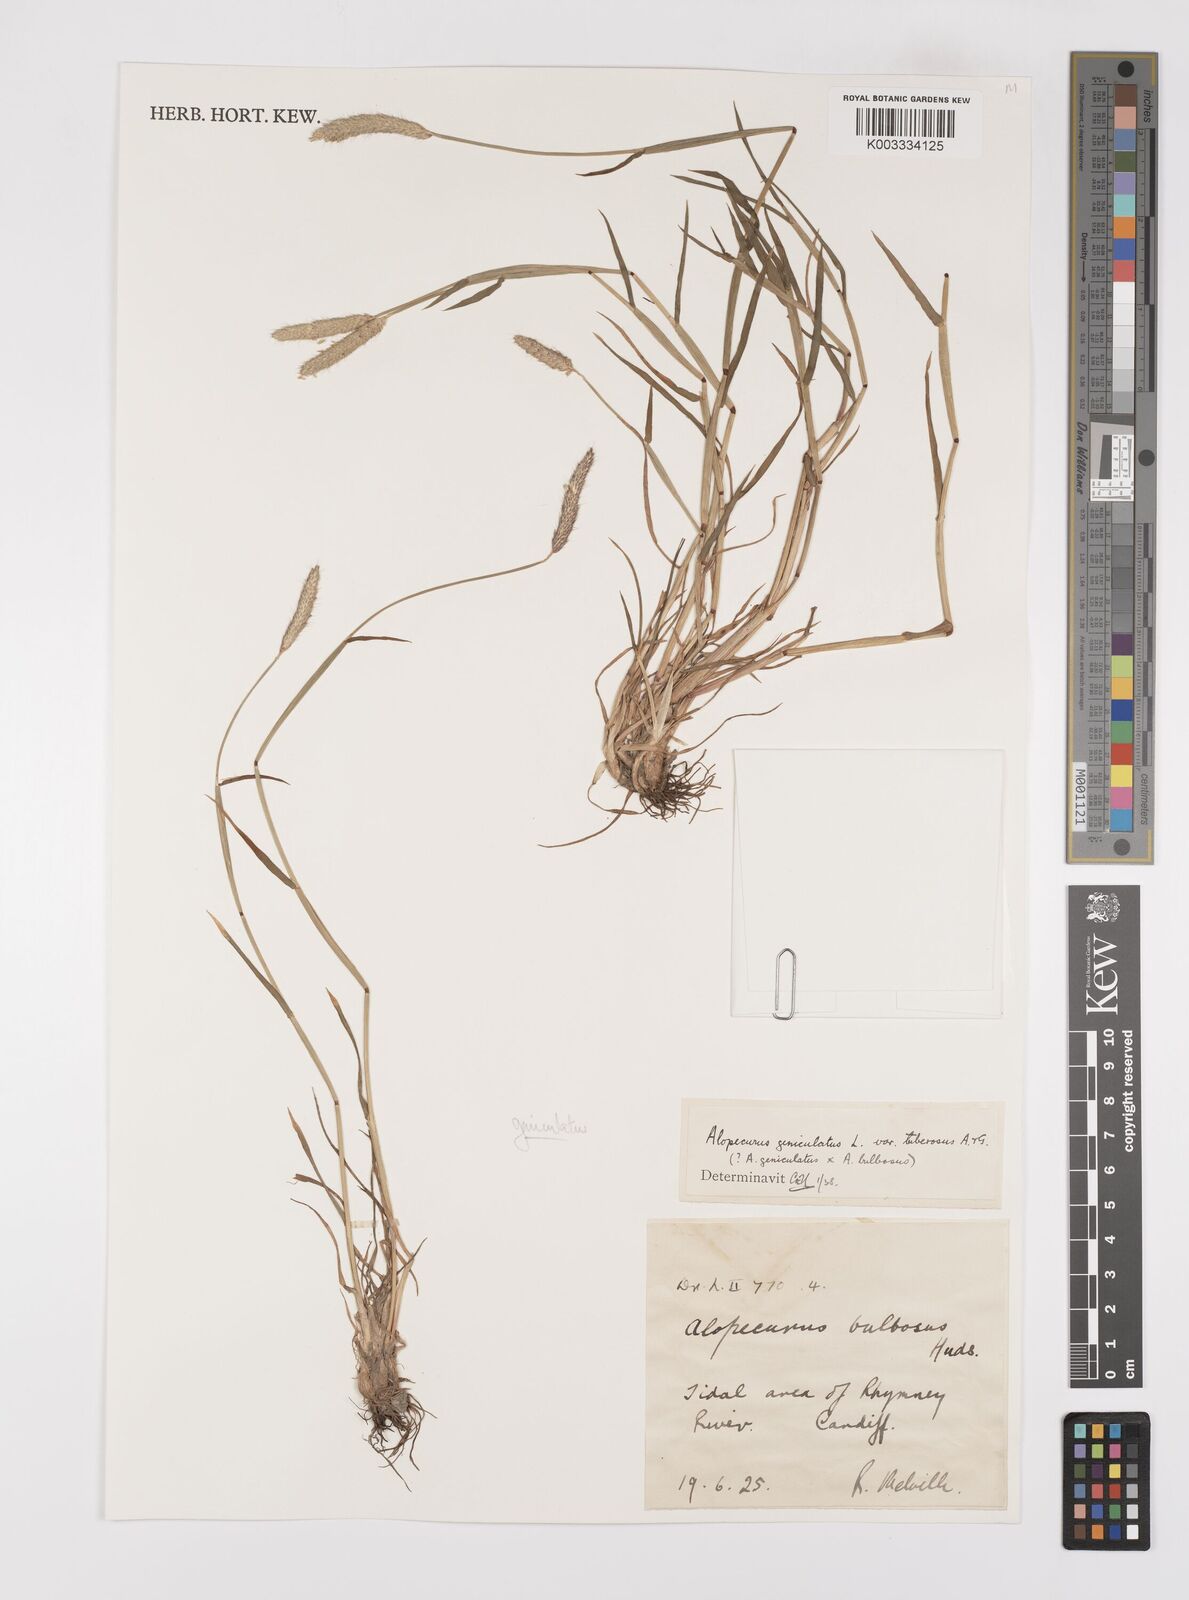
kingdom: Plantae
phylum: Tracheophyta
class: Liliopsida
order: Poales
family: Poaceae
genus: Alopecurus
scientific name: Alopecurus geniculatus
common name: Water foxtail
